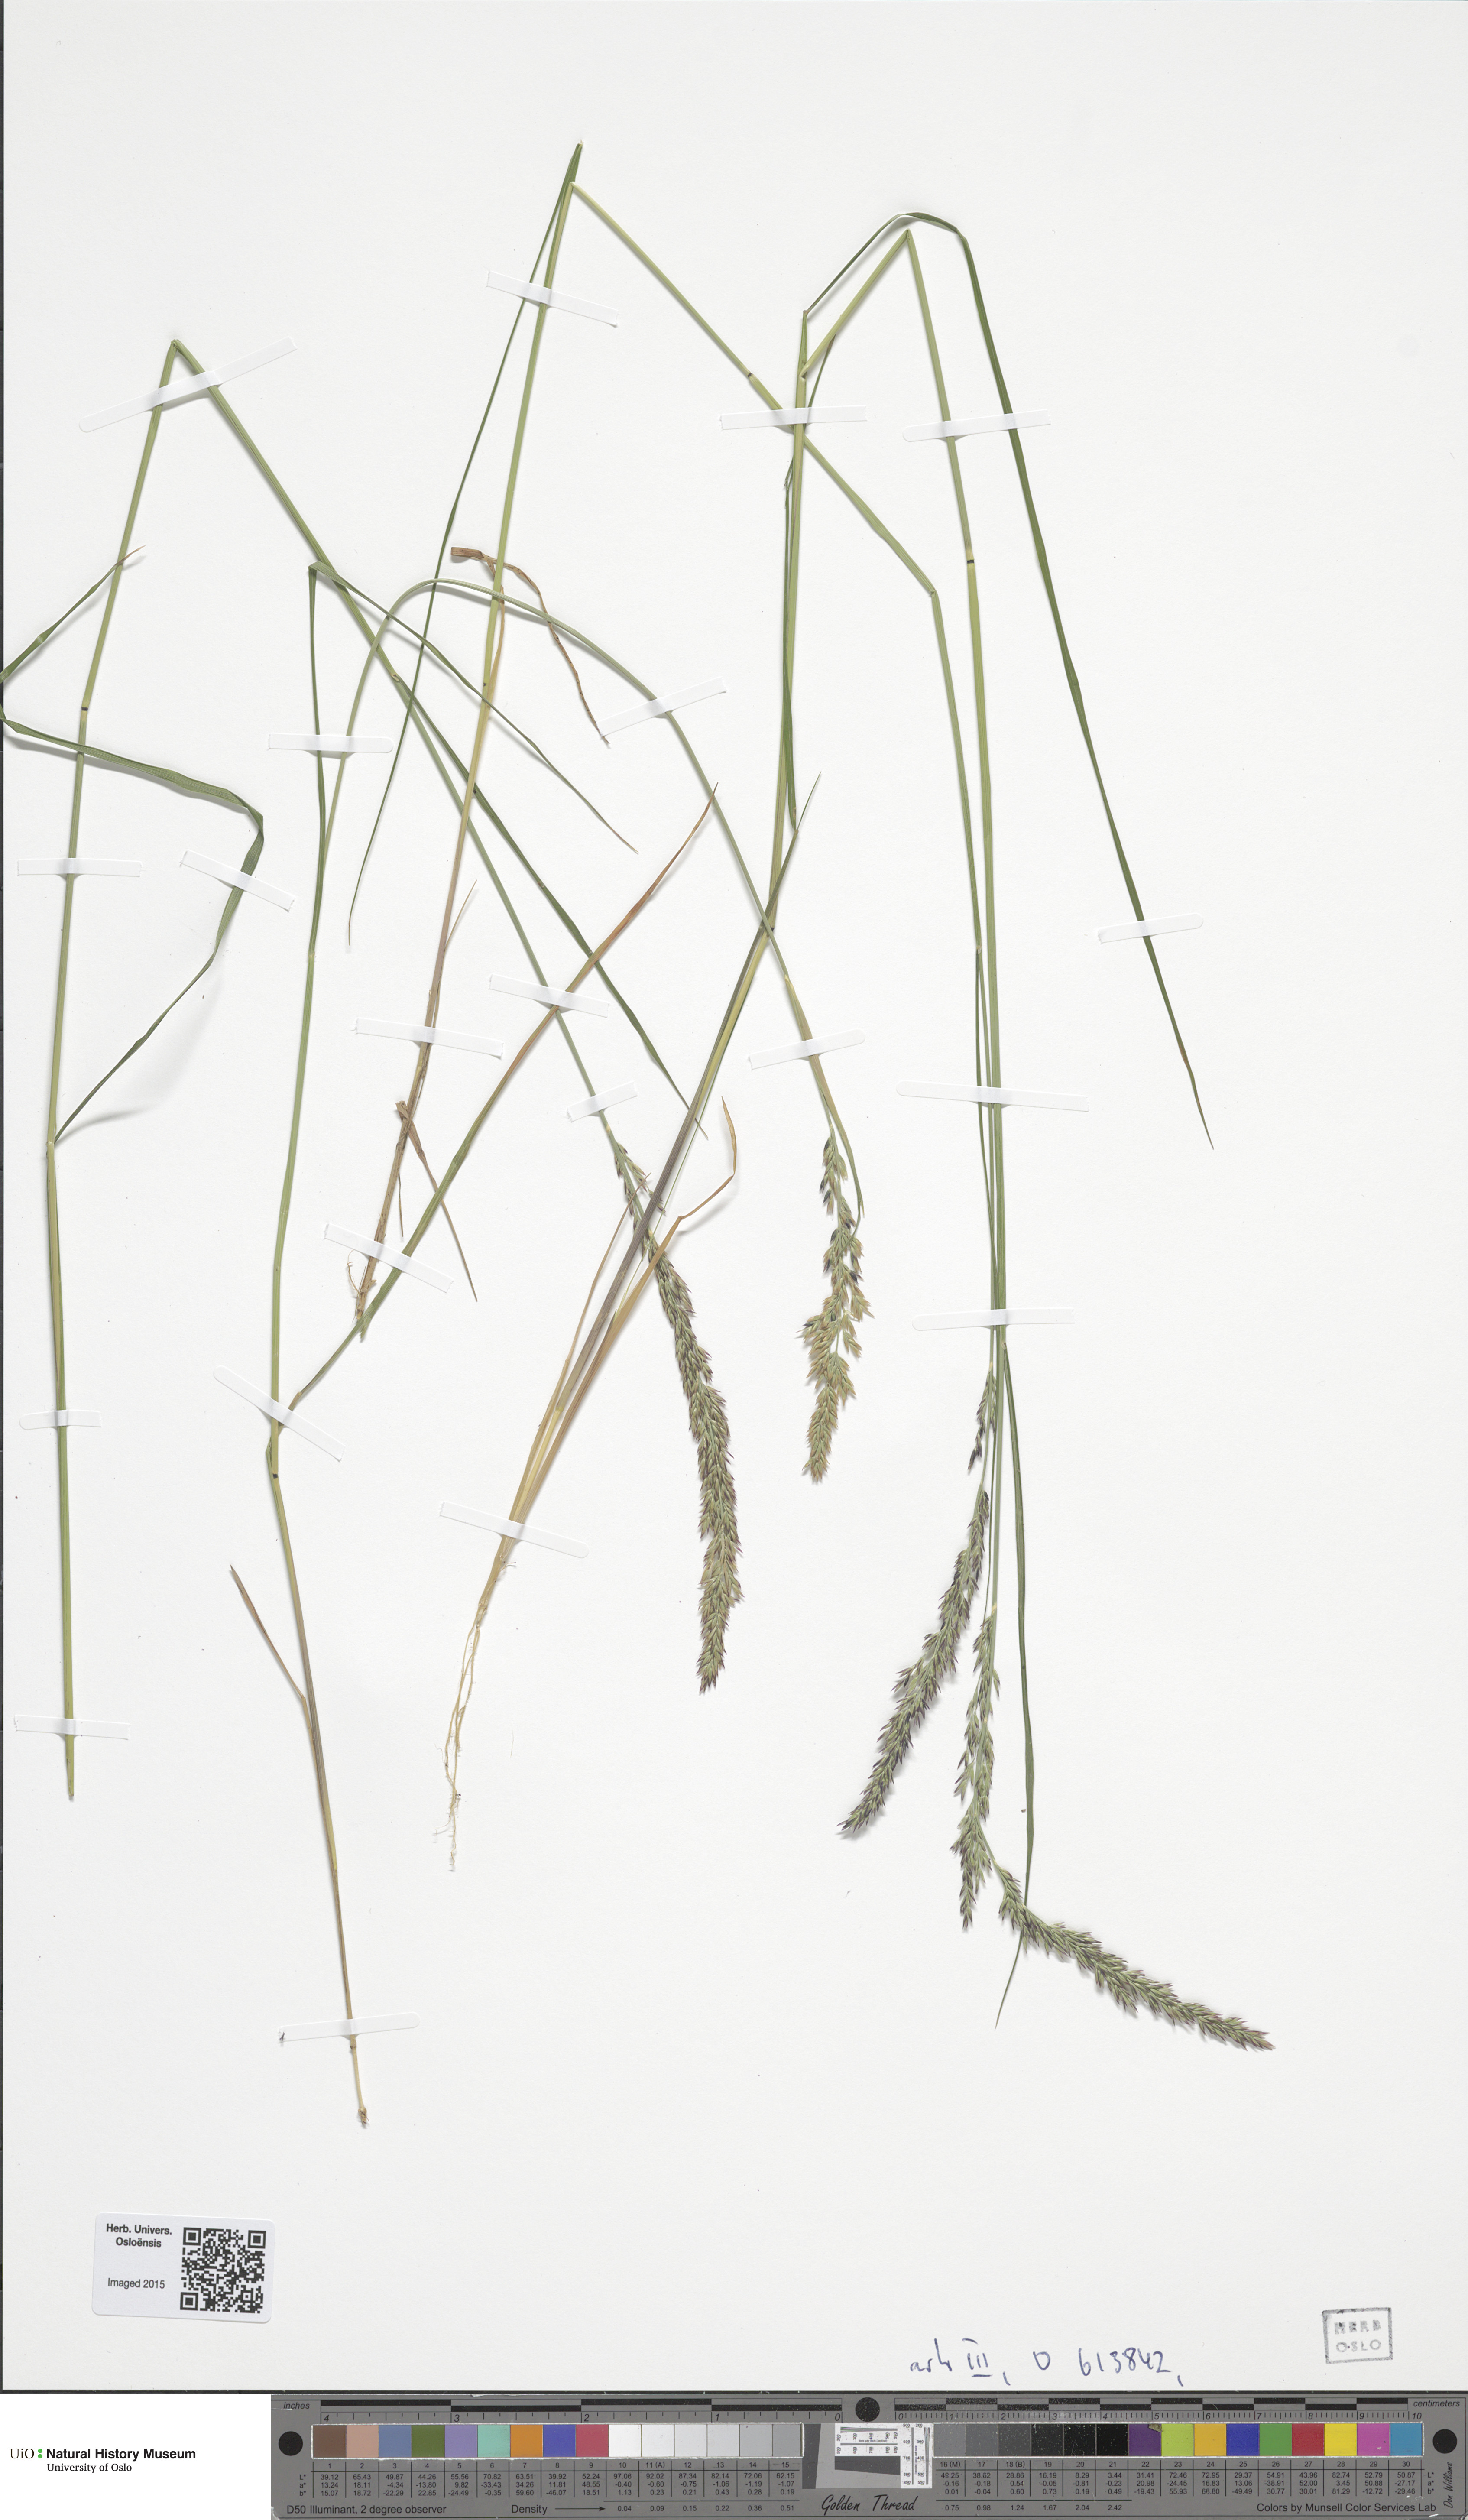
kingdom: Plantae
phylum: Tracheophyta
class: Liliopsida
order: Poales
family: Poaceae
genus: Achnatherum
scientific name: Achnatherum calamagrostis
